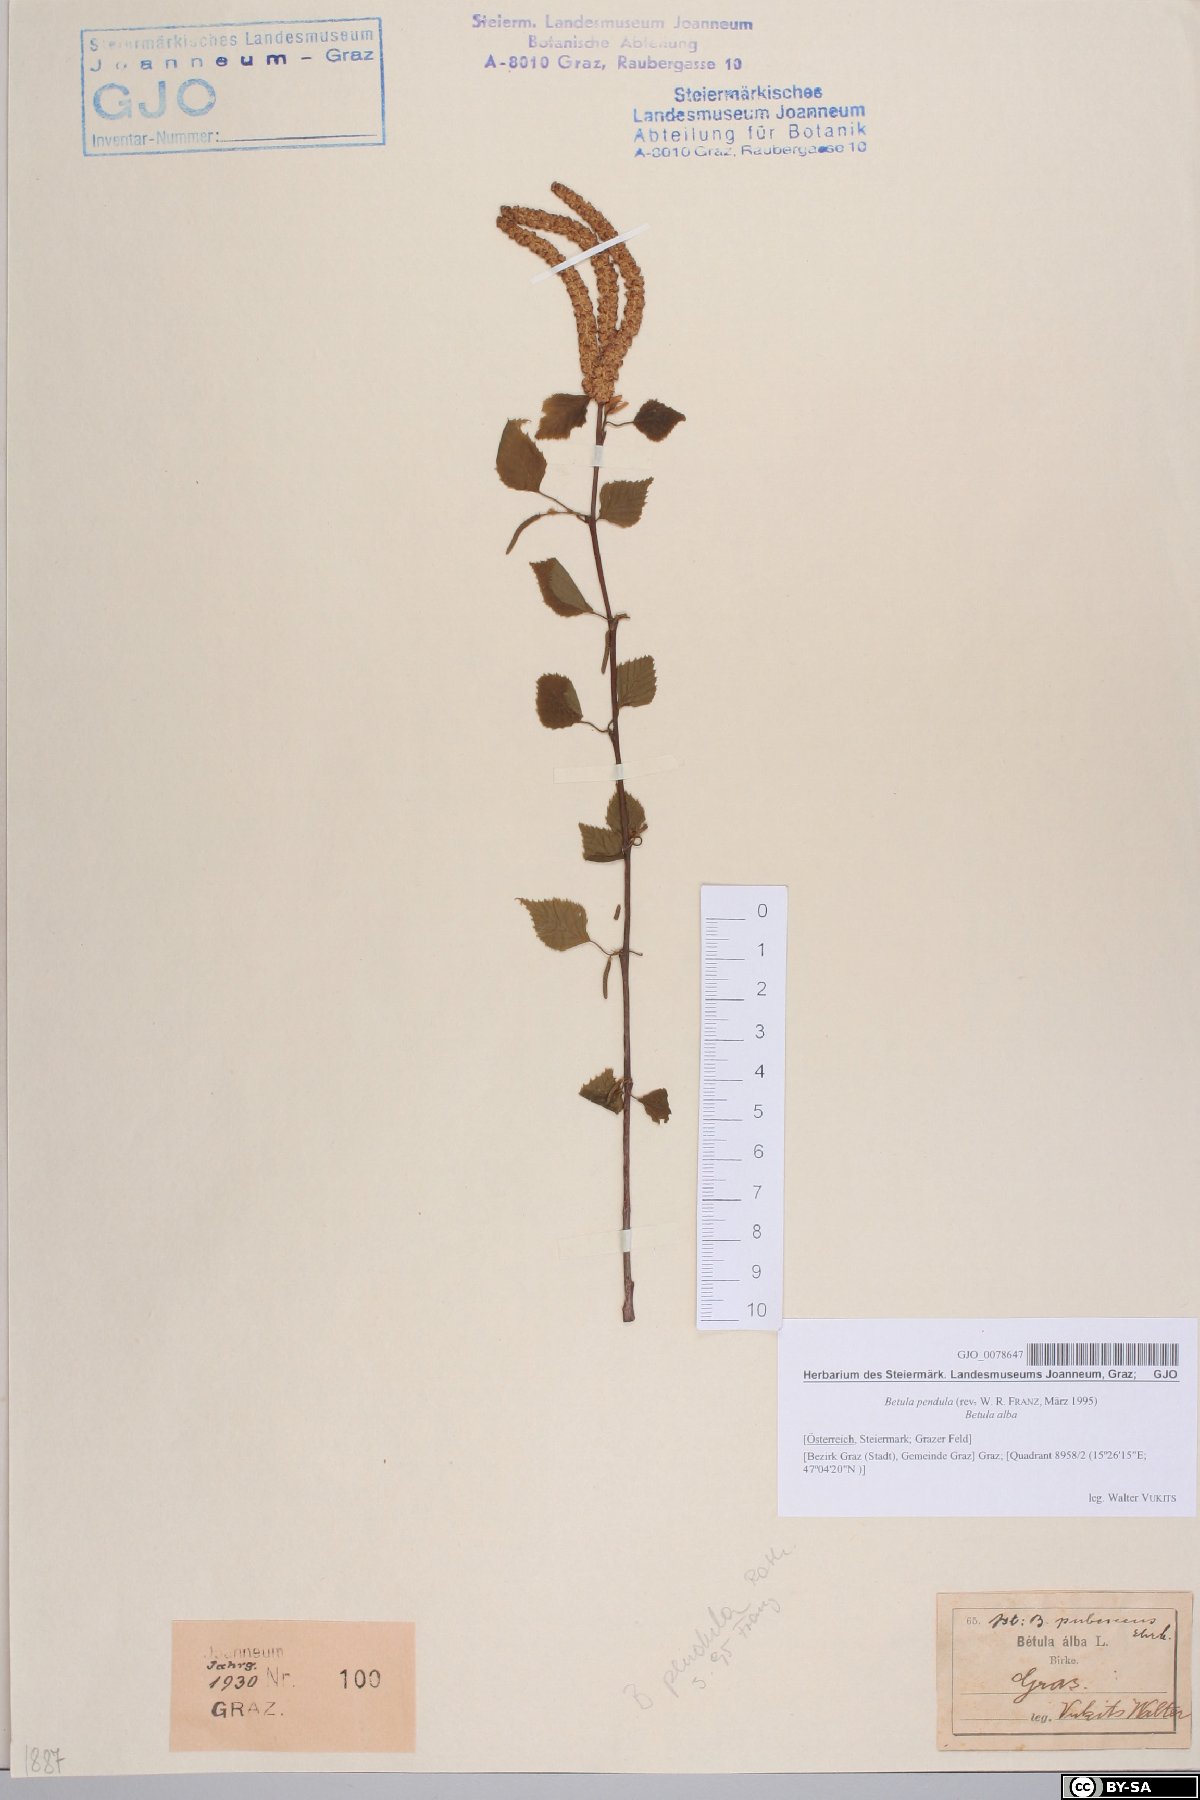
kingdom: Plantae
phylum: Tracheophyta
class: Magnoliopsida
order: Fagales
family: Betulaceae
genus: Betula
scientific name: Betula pendula
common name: Silver birch
